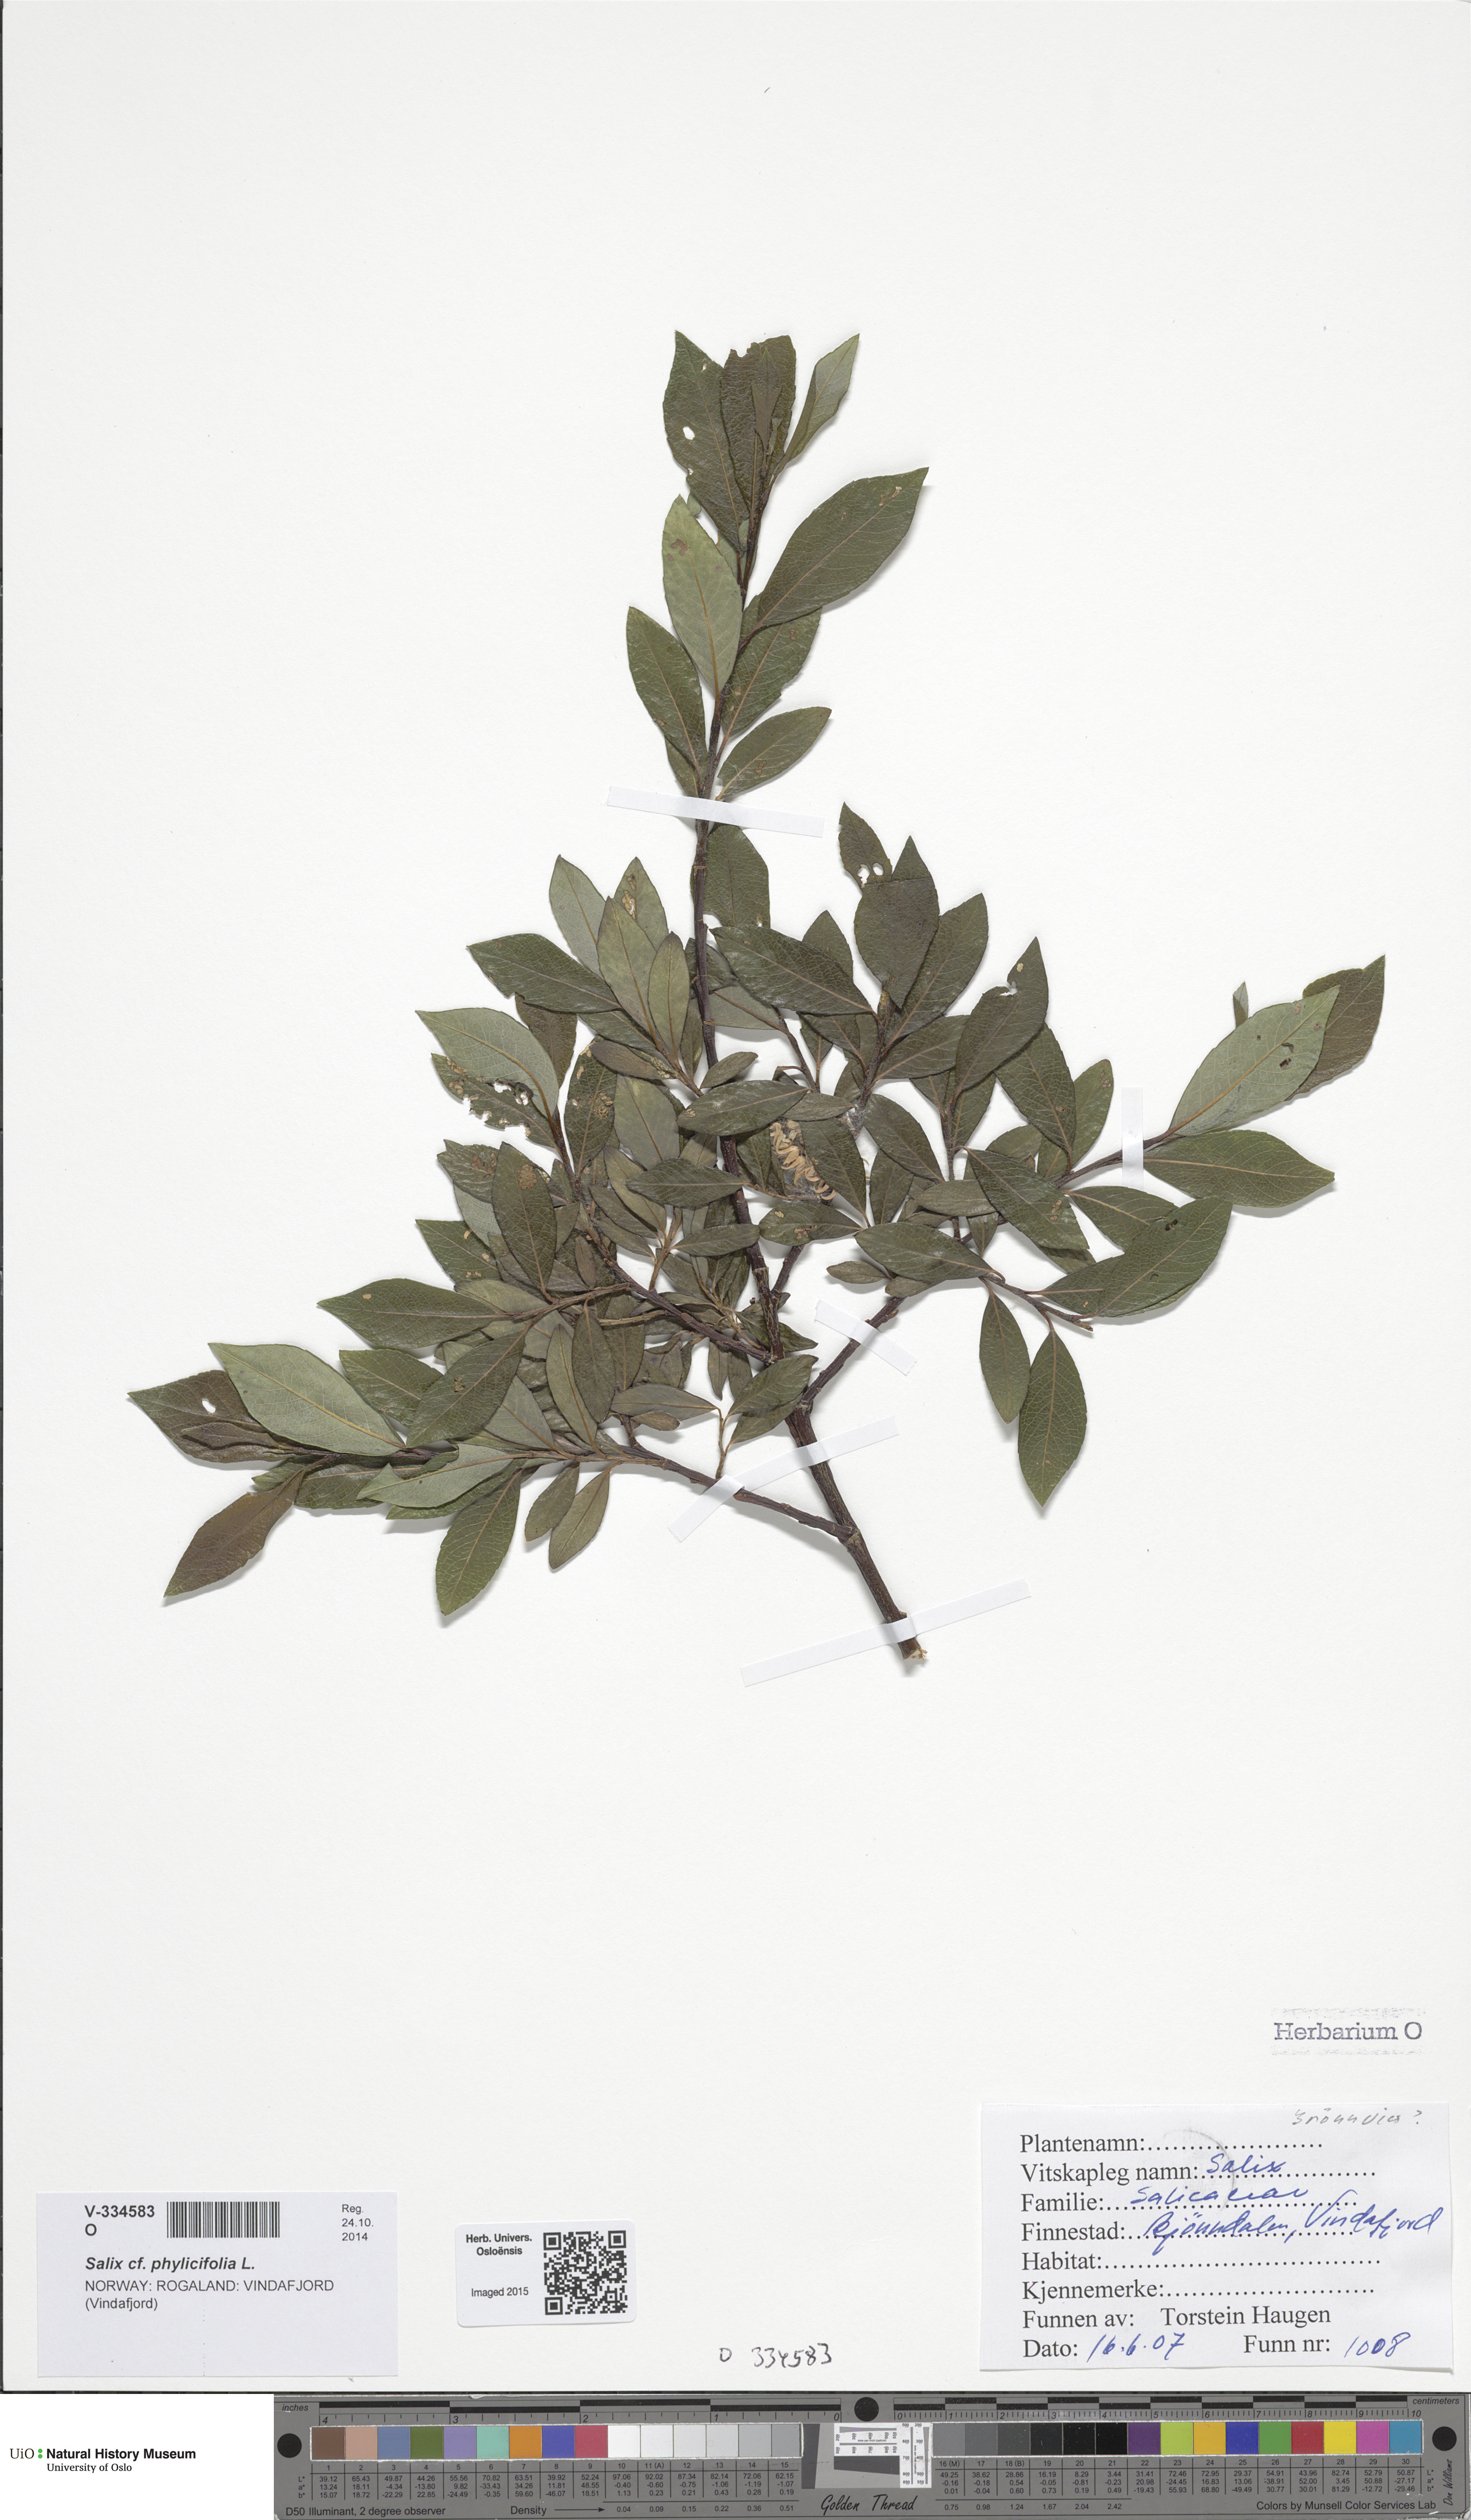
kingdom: Plantae
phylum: Tracheophyta
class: Magnoliopsida
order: Malpighiales
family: Salicaceae
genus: Salix
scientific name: Salix
